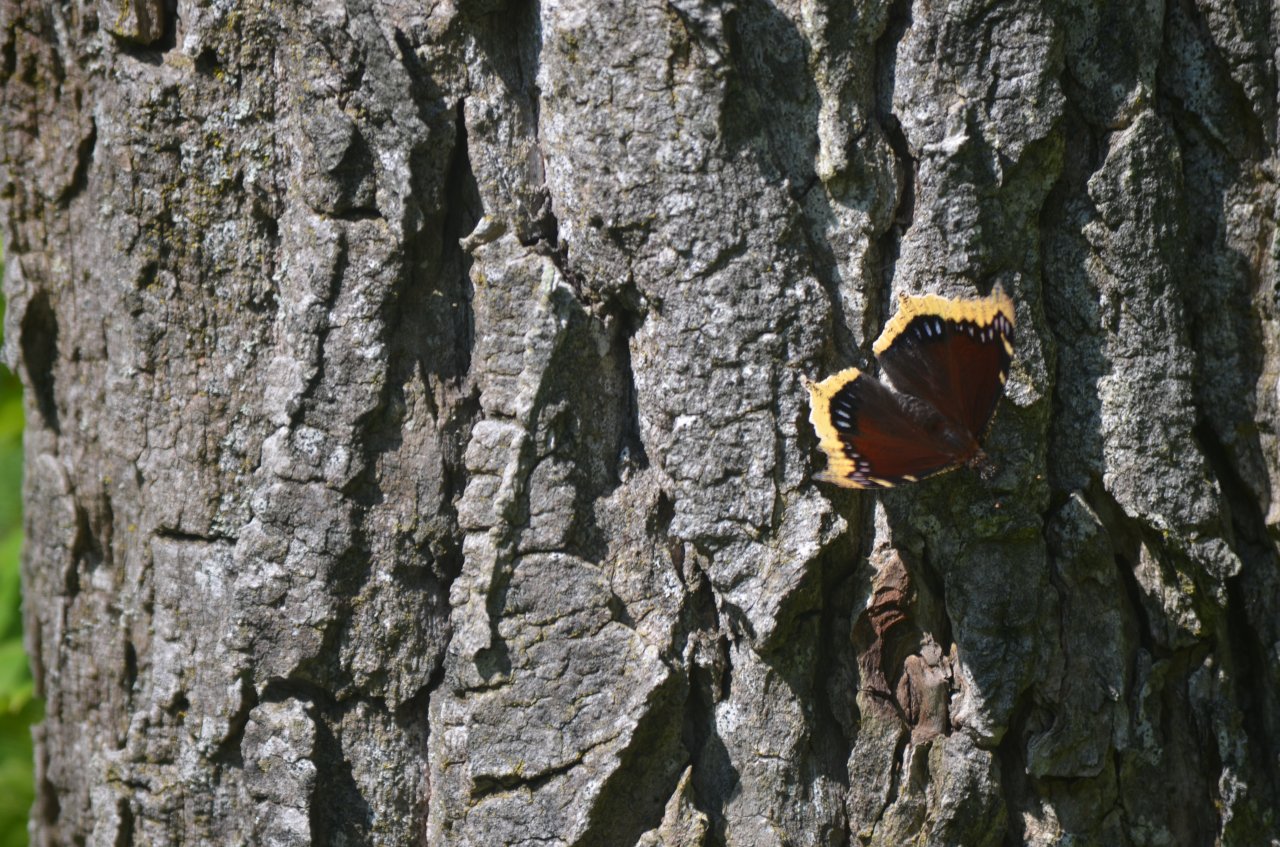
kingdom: Animalia
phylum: Arthropoda
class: Insecta
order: Lepidoptera
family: Nymphalidae
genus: Nymphalis
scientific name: Nymphalis antiopa
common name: Mourning Cloak
